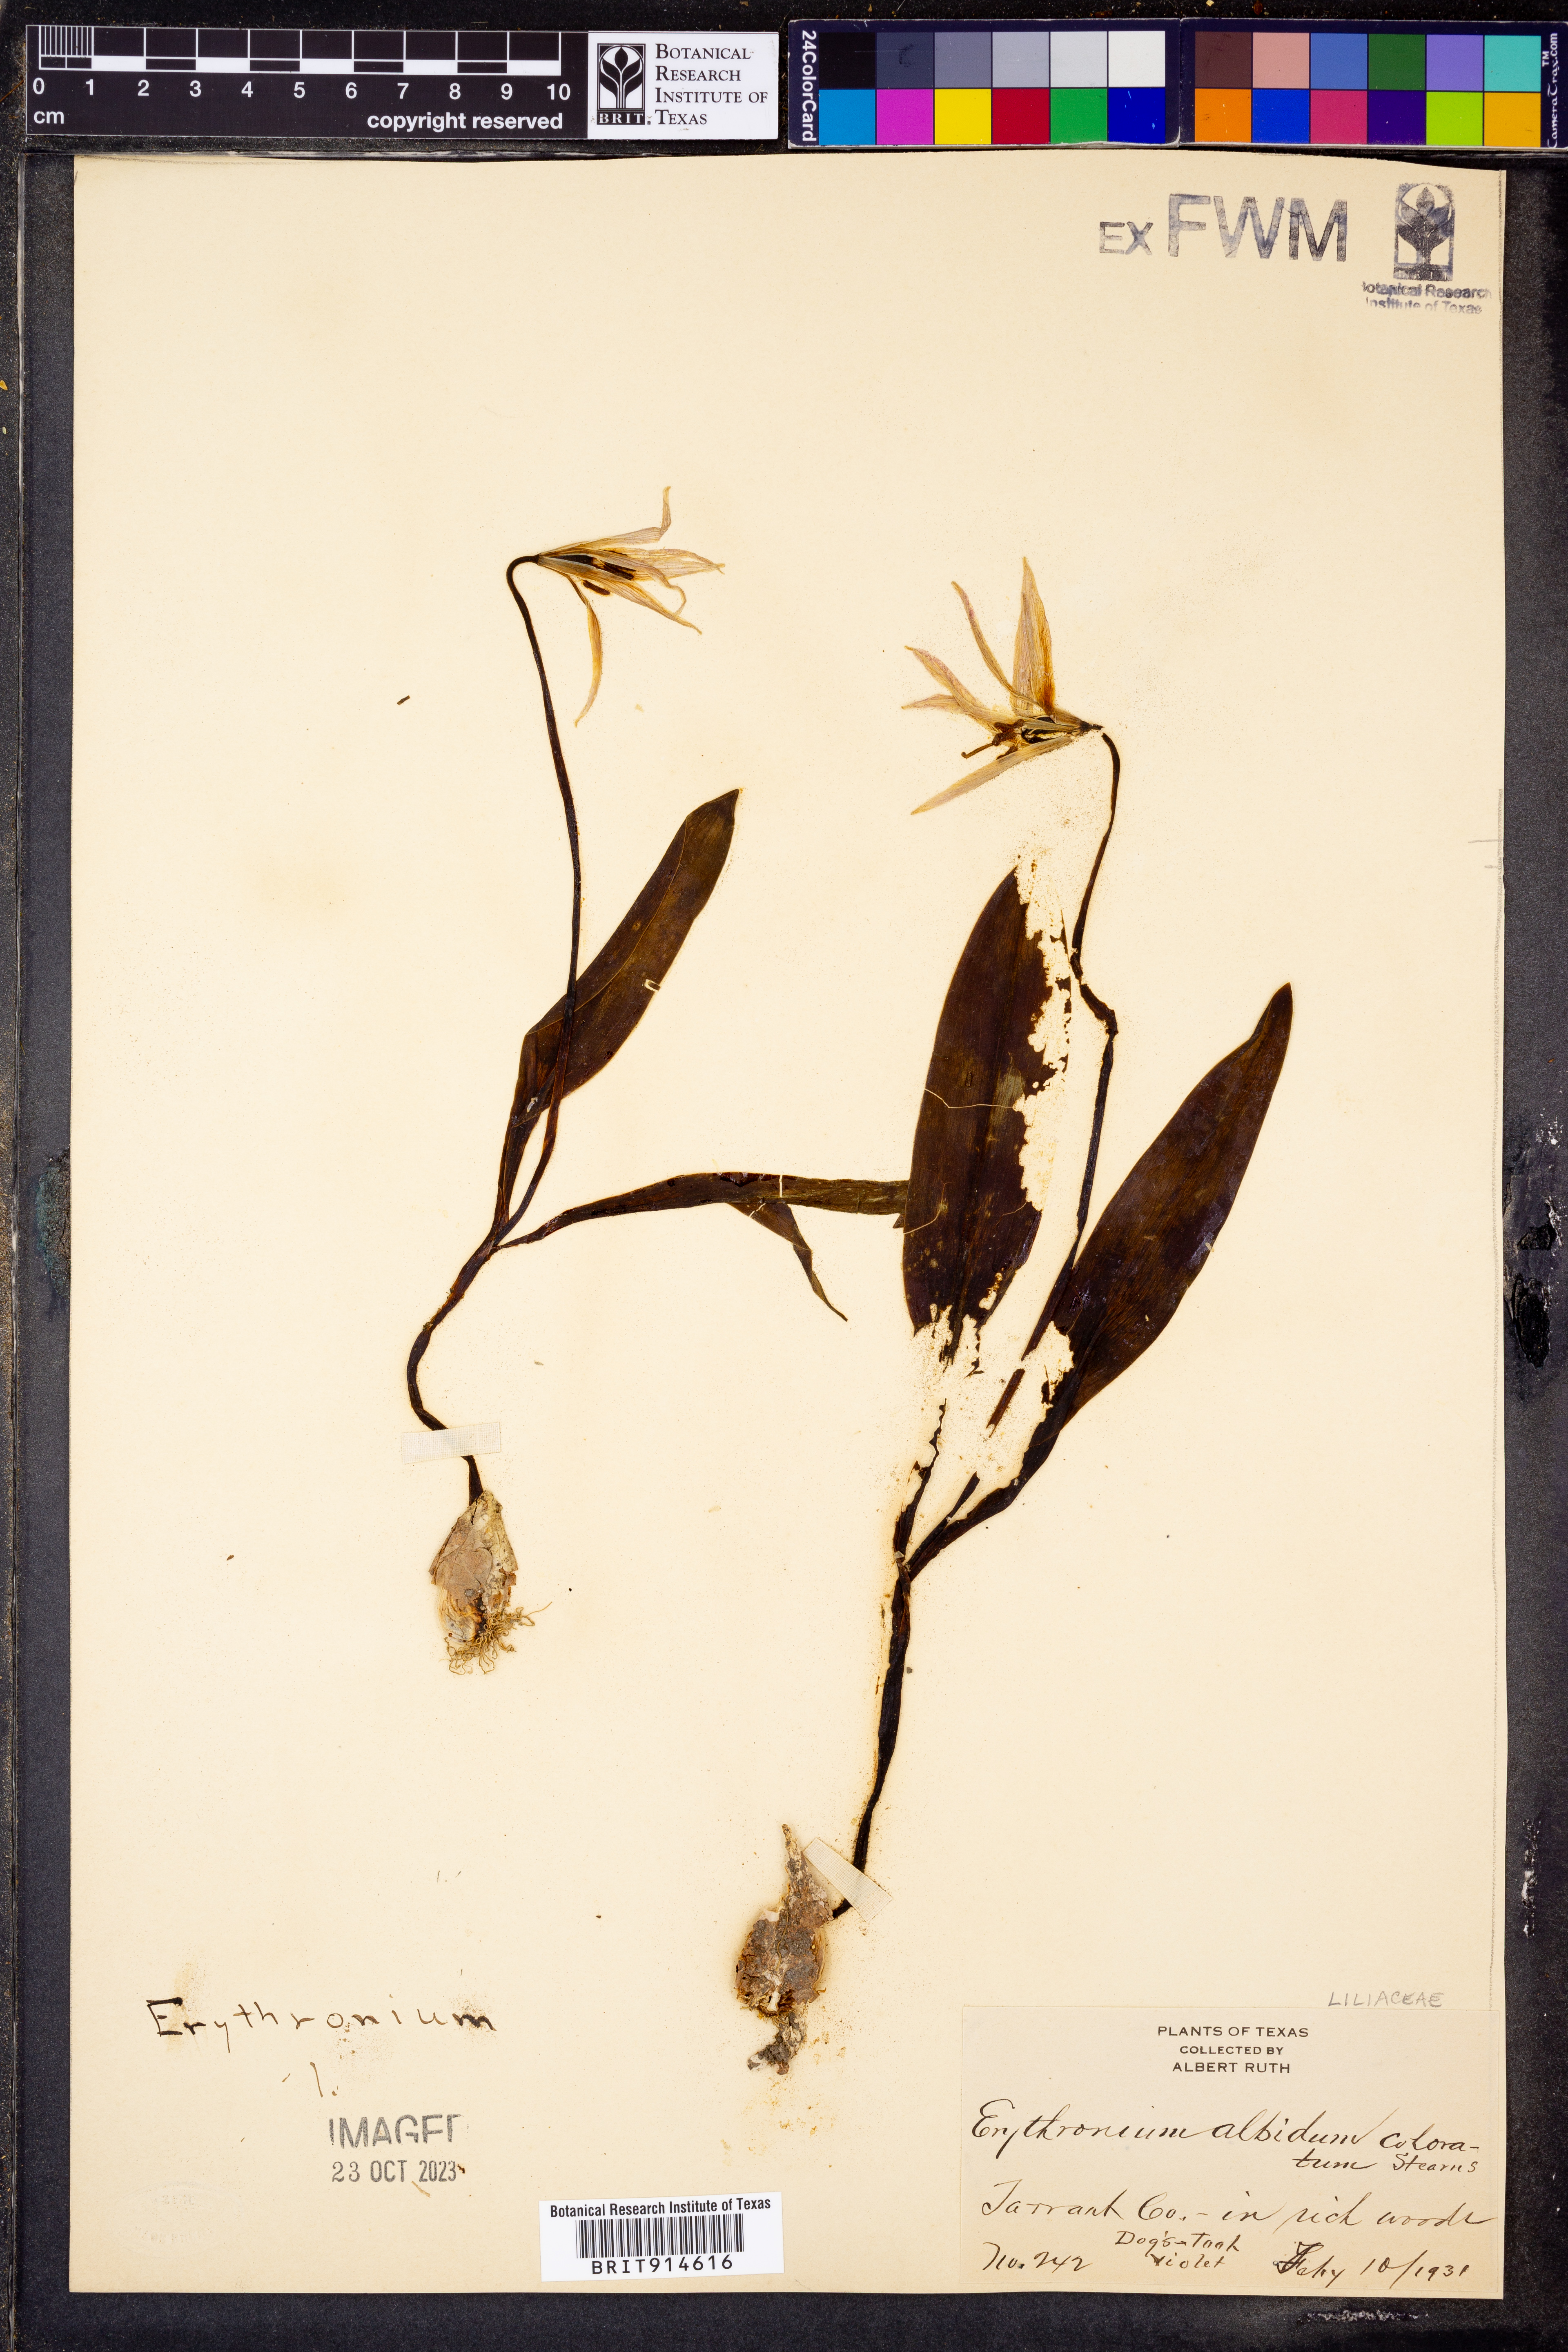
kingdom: Plantae
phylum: Tracheophyta
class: Liliopsida
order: Liliales
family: Liliaceae
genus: Erythronium
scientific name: Erythronium albidum
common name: White trout-lily
